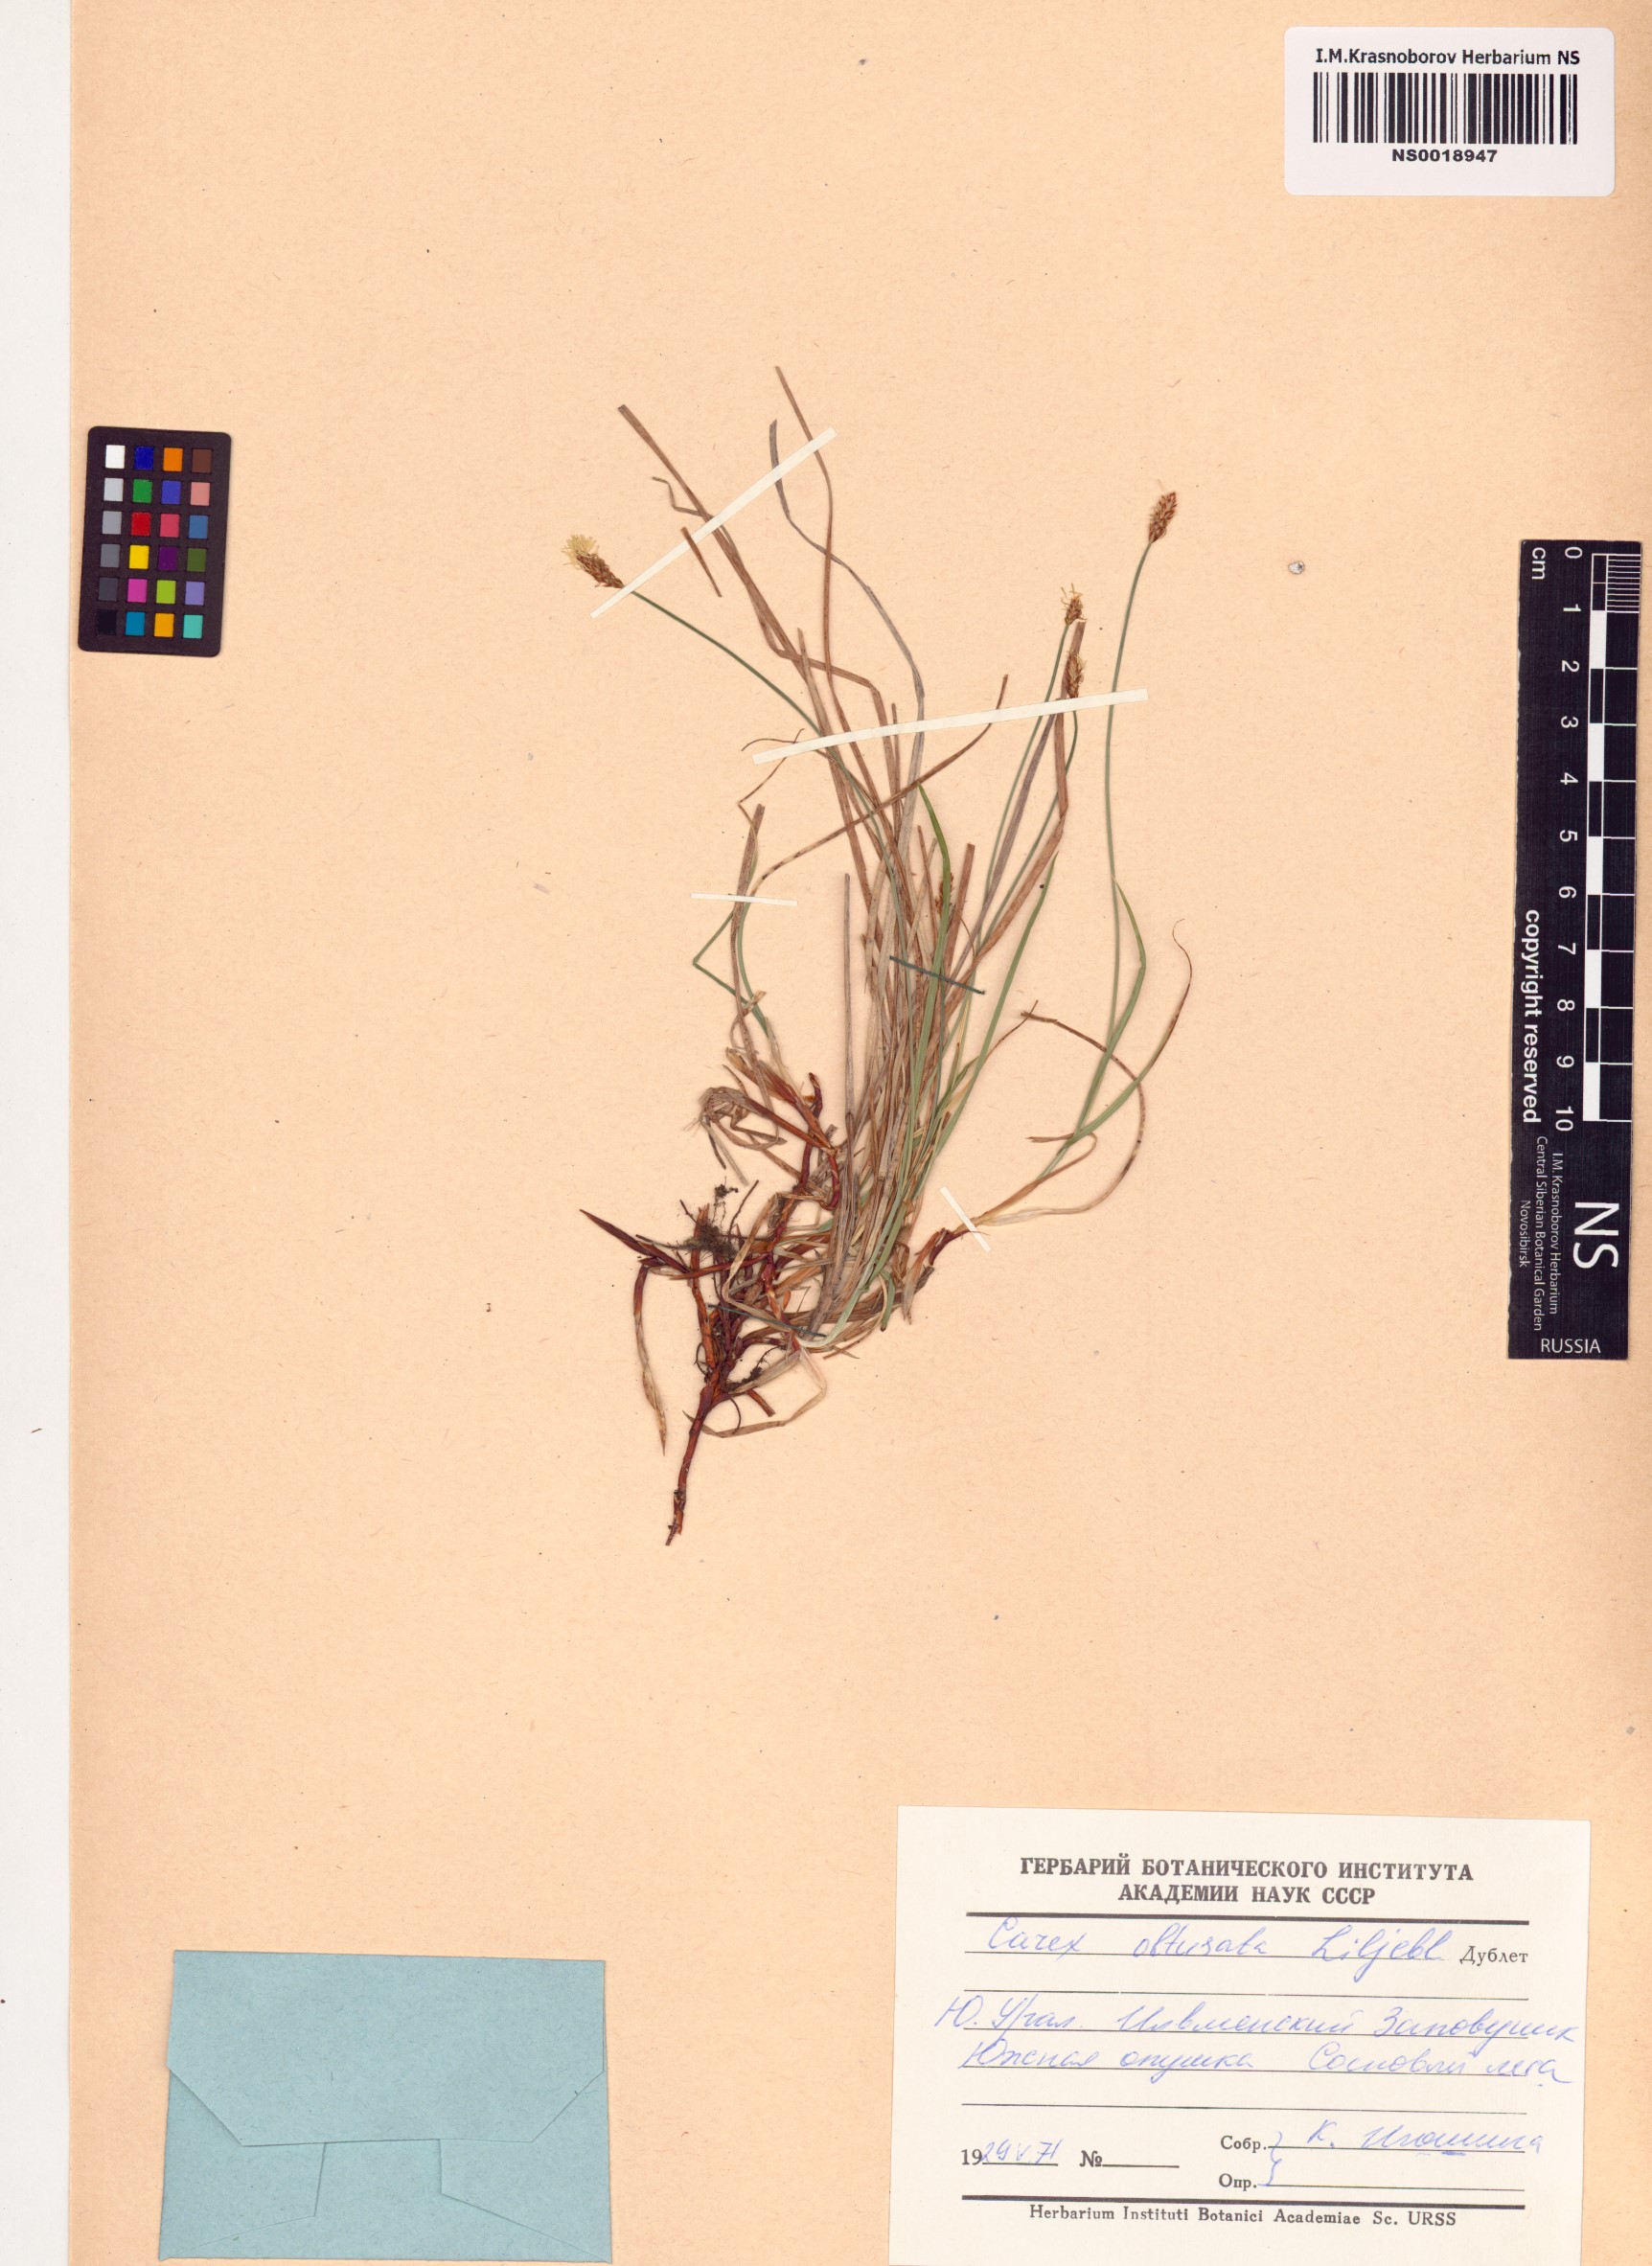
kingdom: Plantae
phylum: Tracheophyta
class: Liliopsida
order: Poales
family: Cyperaceae
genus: Carex
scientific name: Carex obtusata
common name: Blunt sedge
